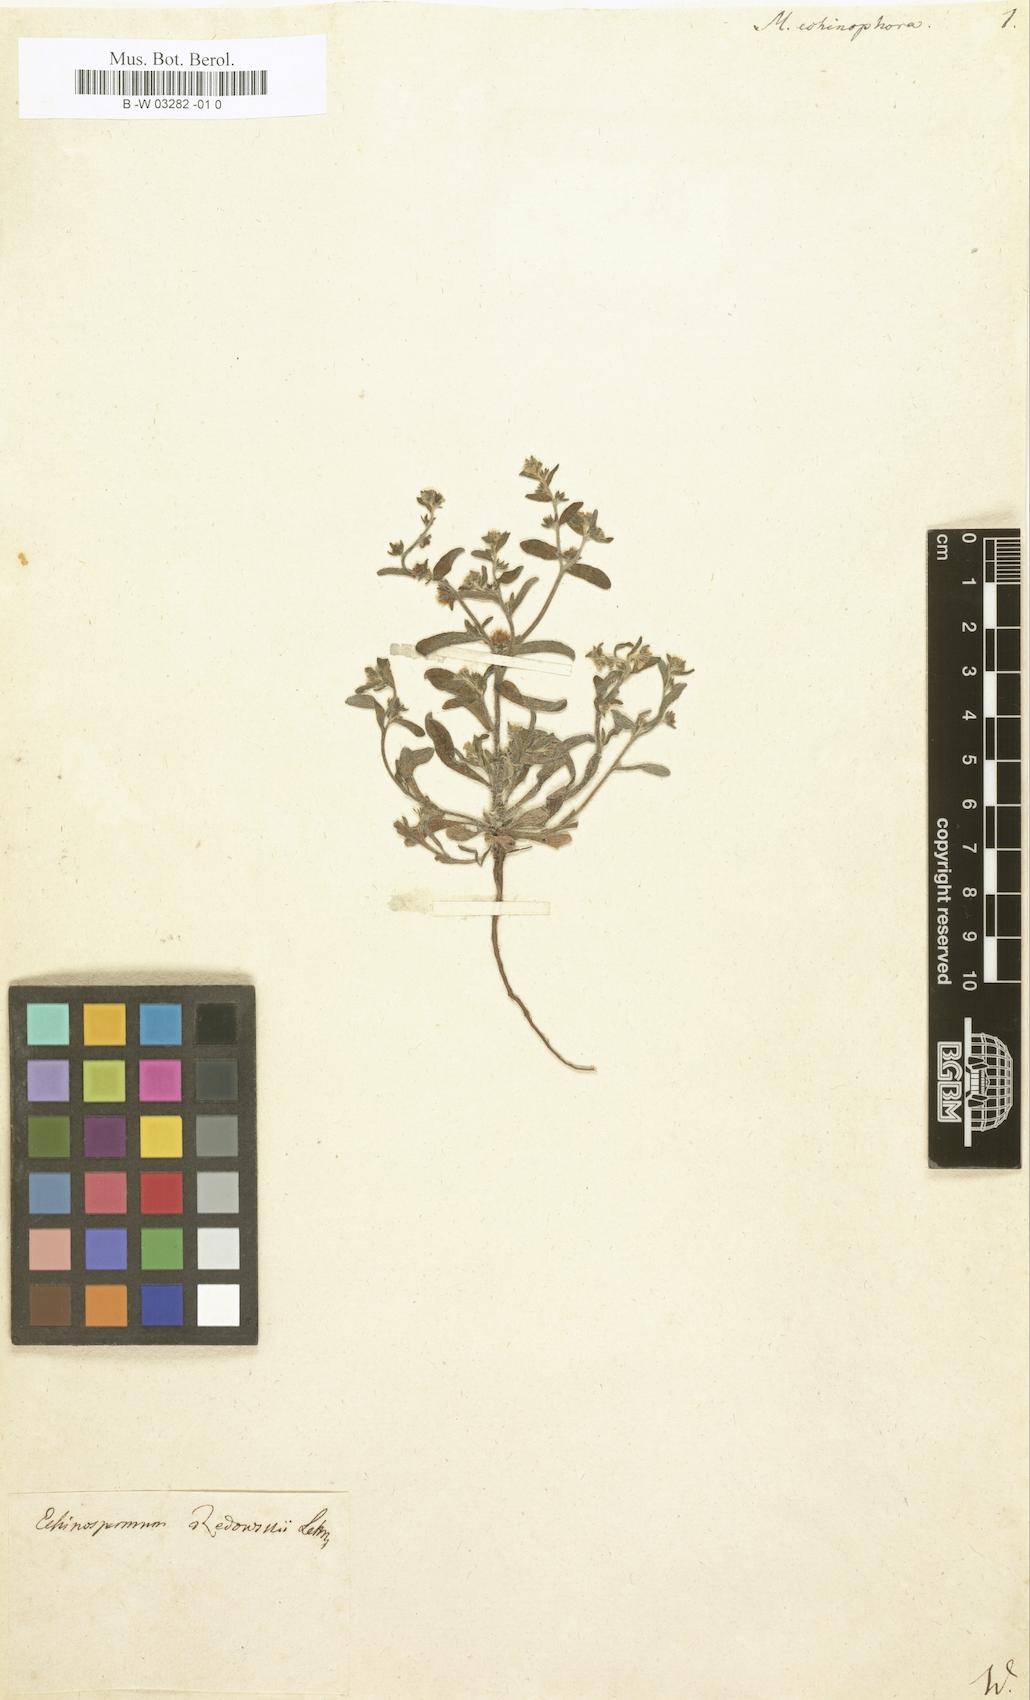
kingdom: Plantae
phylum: Tracheophyta
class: Magnoliopsida
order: Boraginales
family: Boraginaceae
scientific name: Boraginaceae
